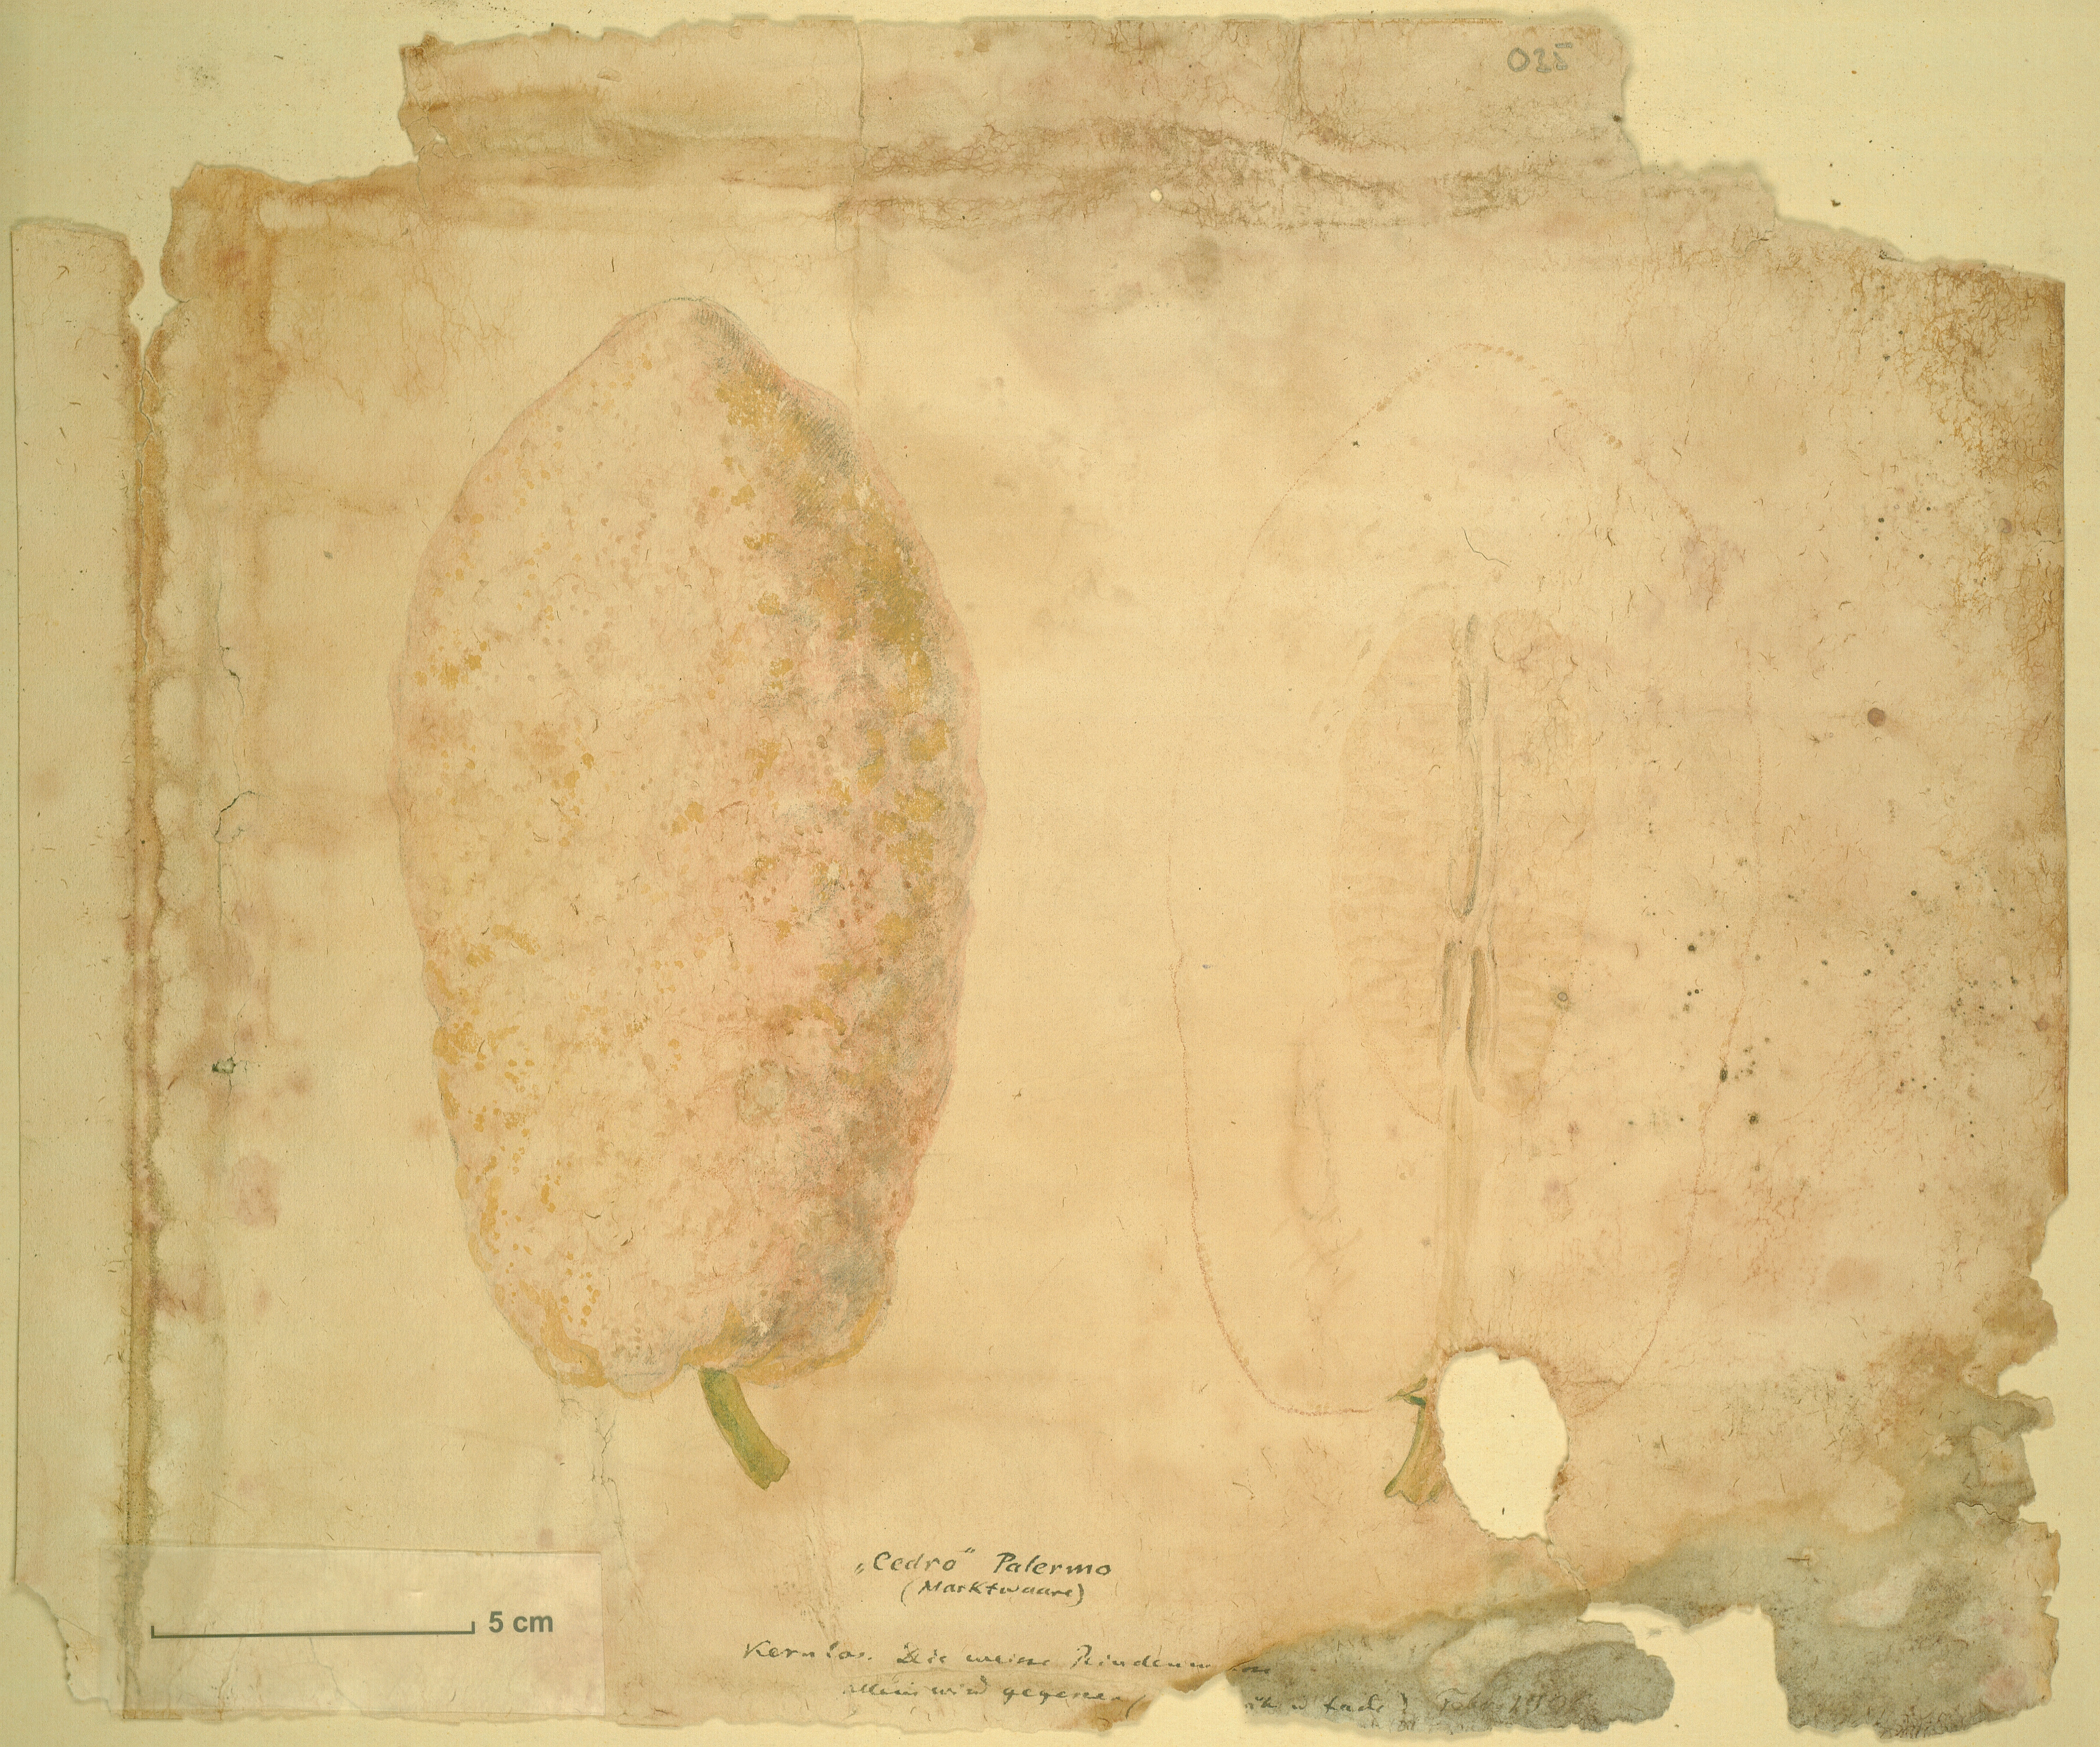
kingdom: Plantae
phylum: Tracheophyta
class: Magnoliopsida
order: Sapindales
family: Rutaceae
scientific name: Rutaceae
